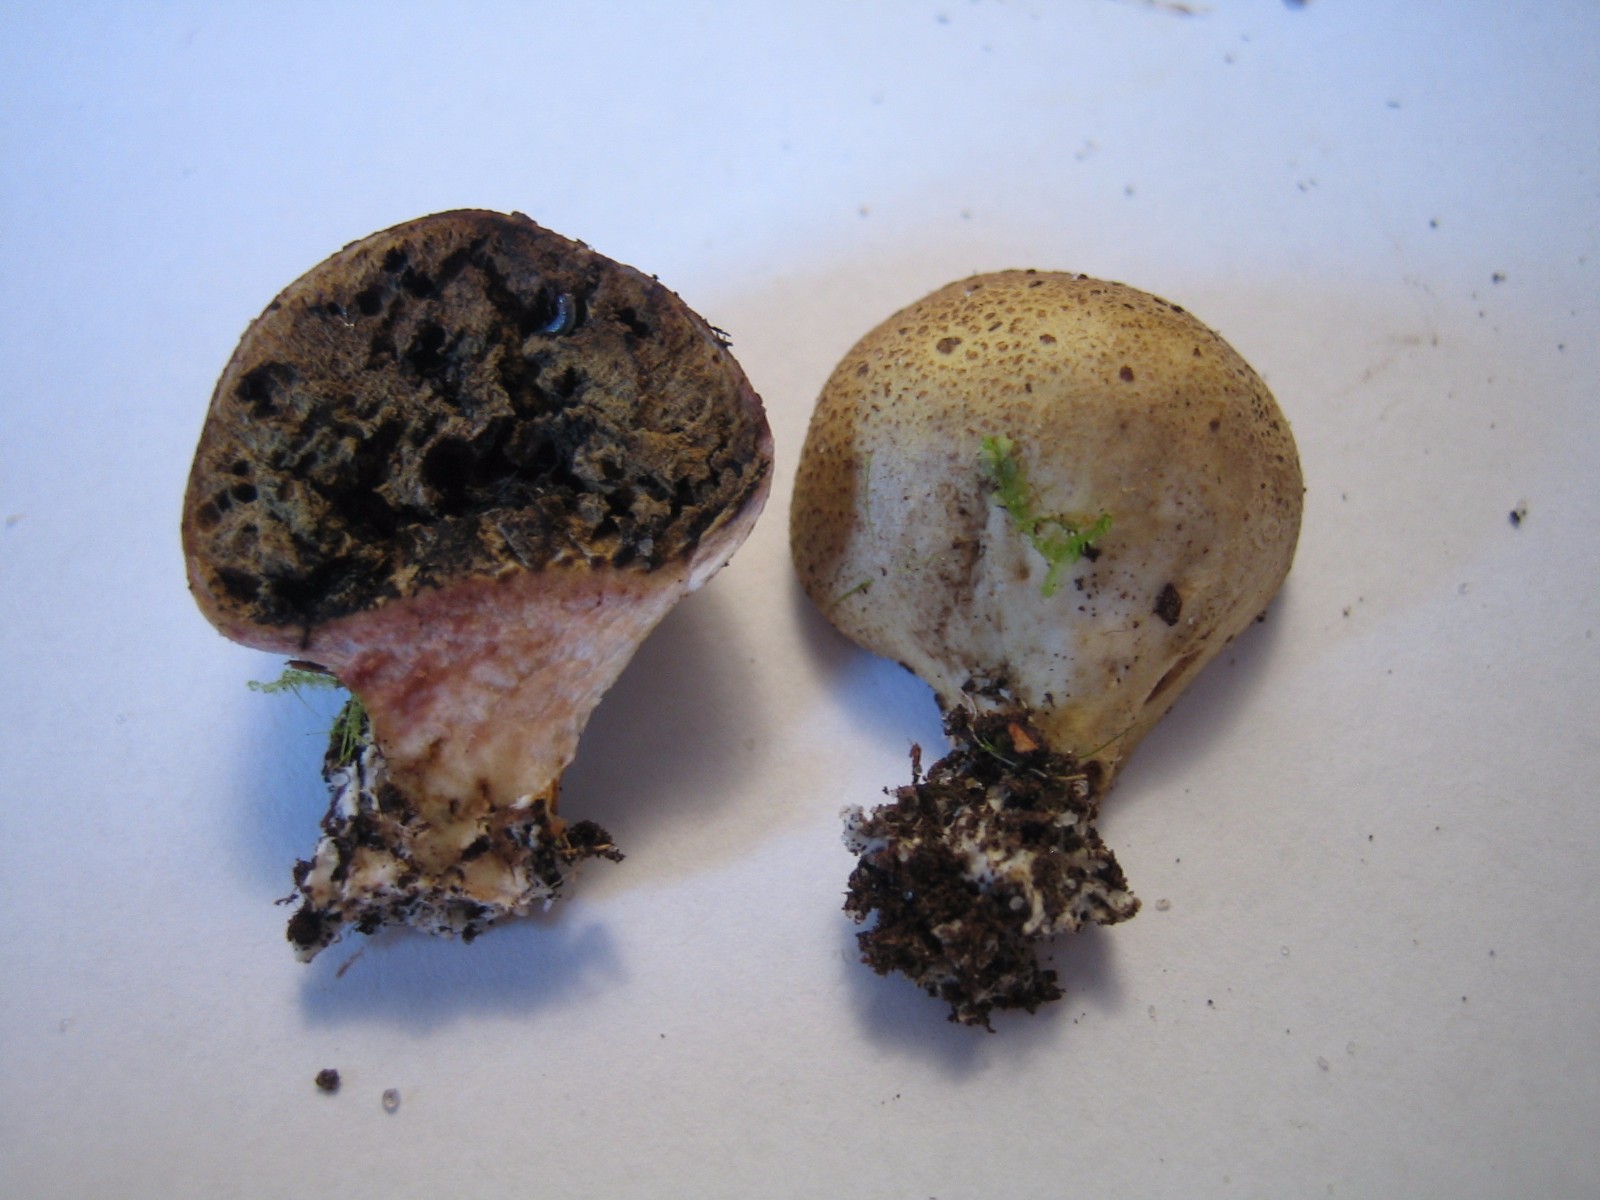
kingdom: Fungi
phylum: Basidiomycota
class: Agaricomycetes
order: Boletales
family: Sclerodermataceae
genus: Scleroderma
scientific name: Scleroderma
